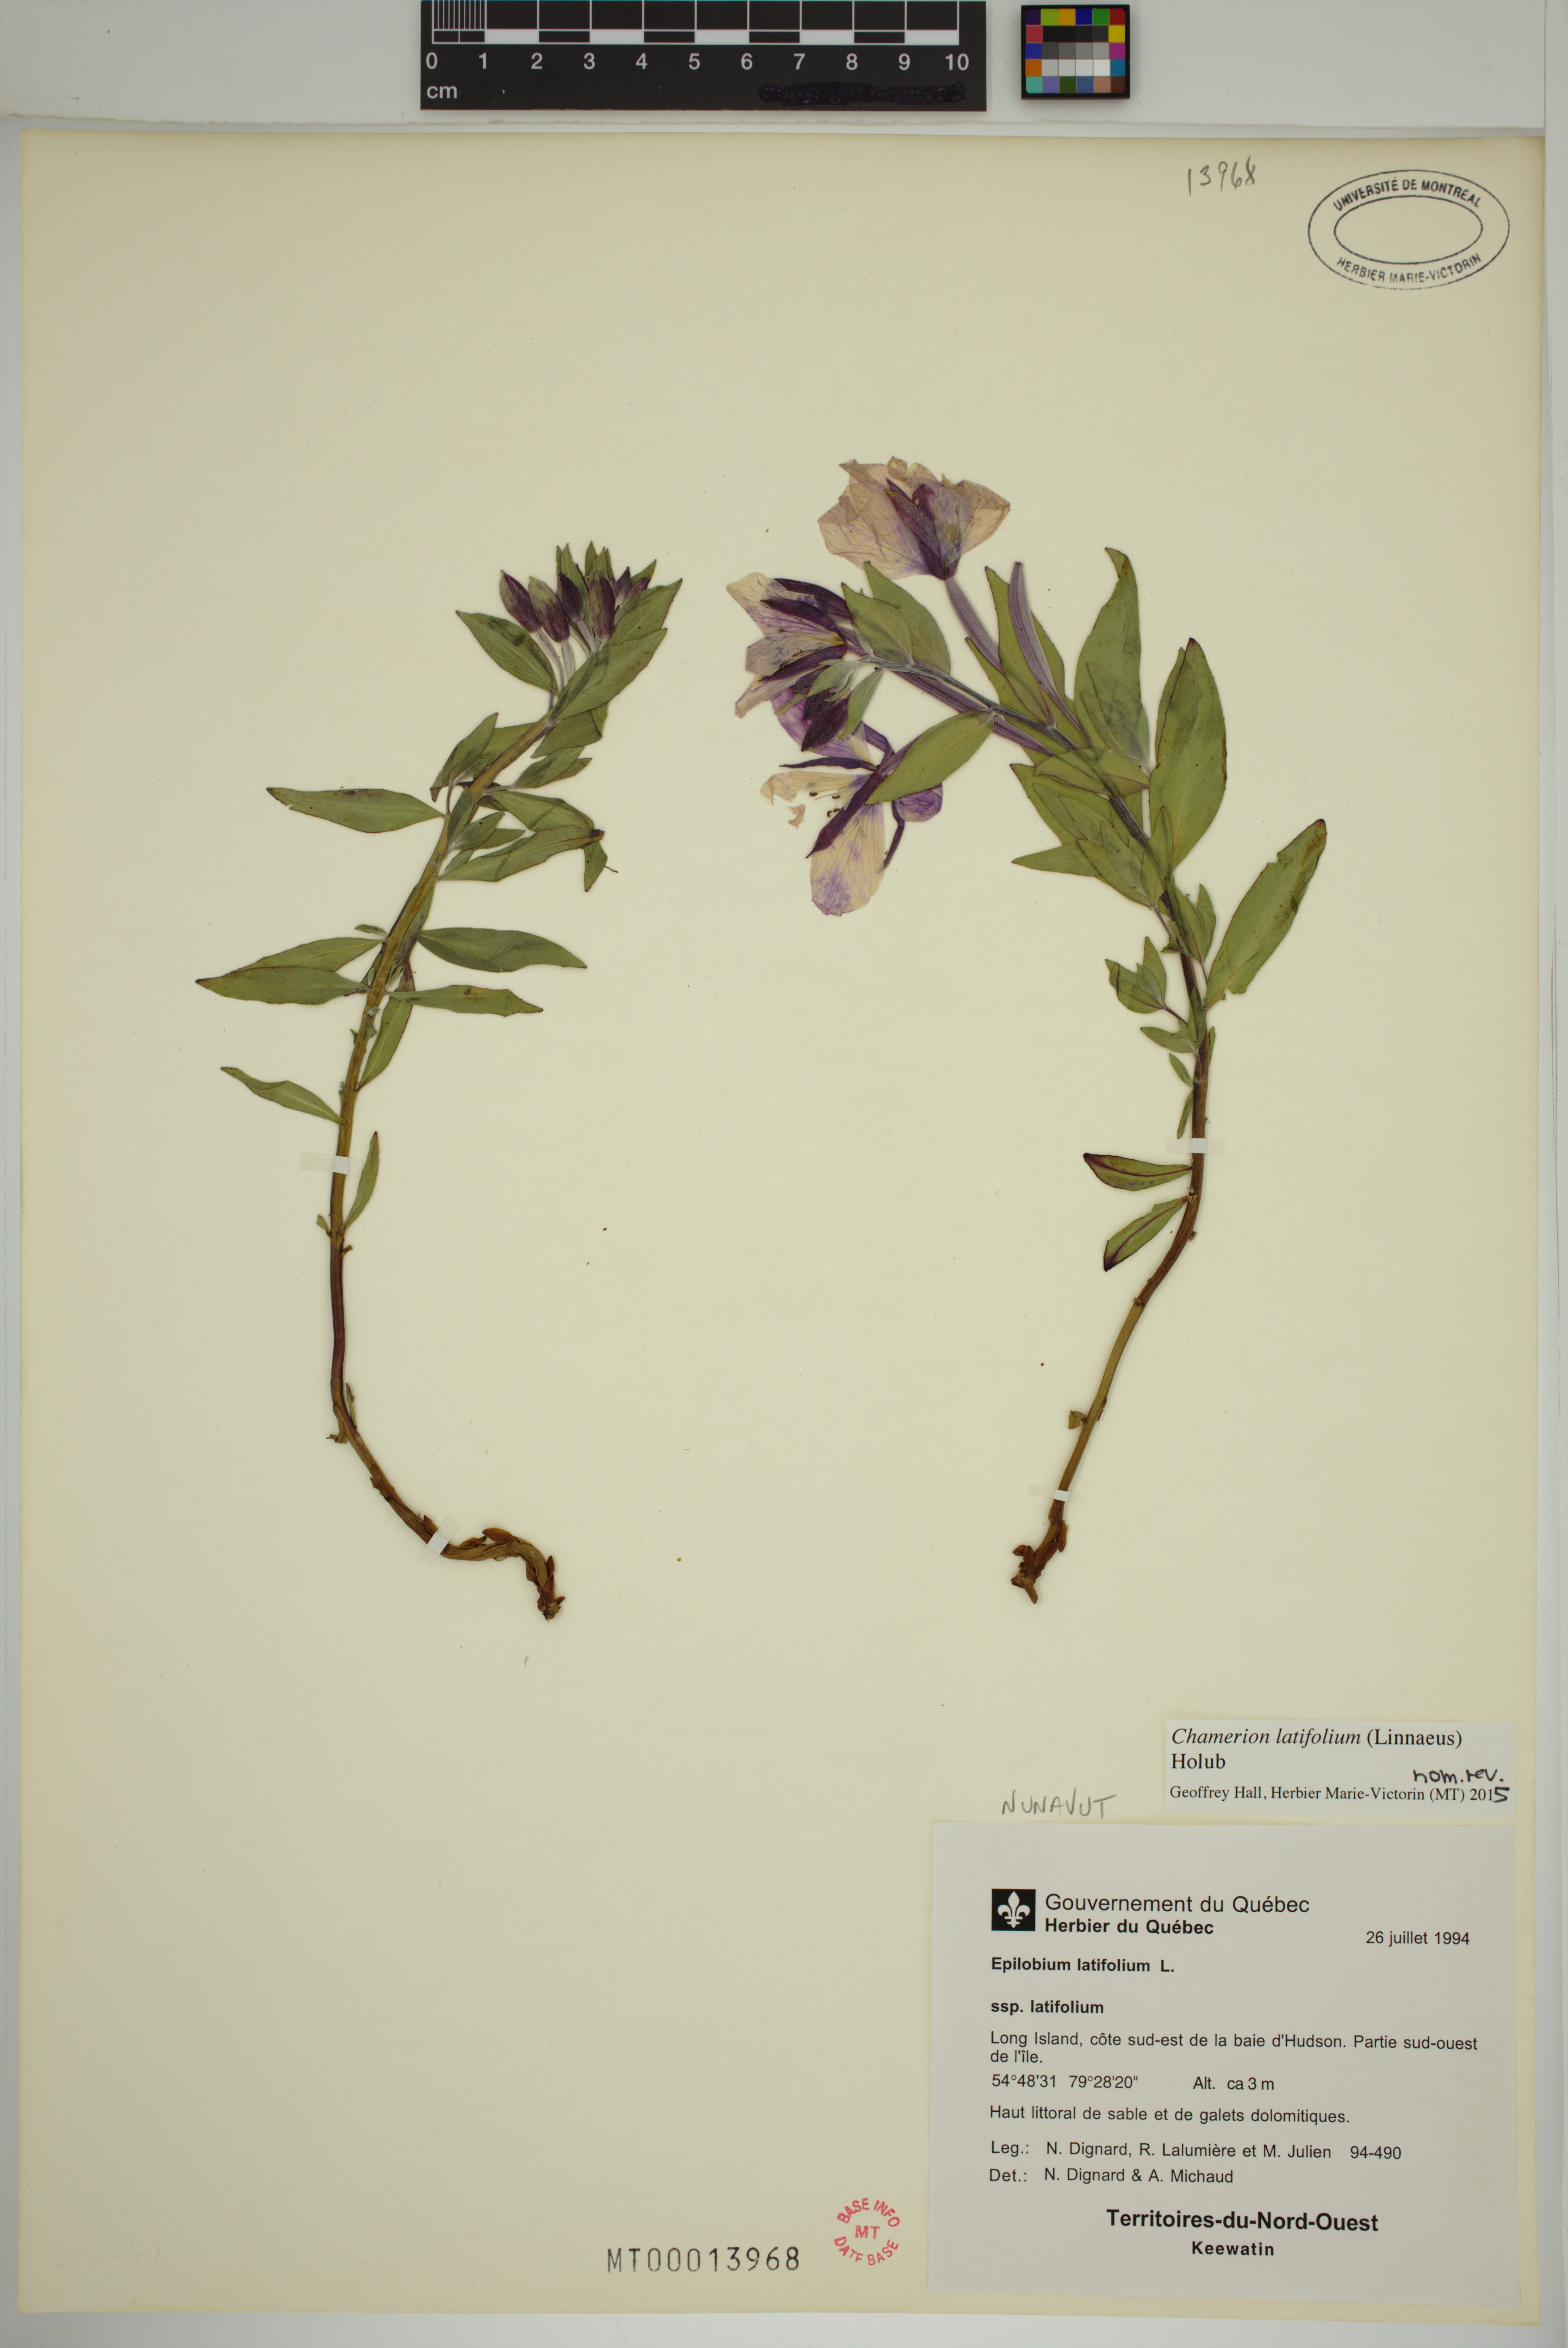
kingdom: Plantae
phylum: Tracheophyta
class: Magnoliopsida
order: Myrtales
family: Onagraceae
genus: Chamaenerion
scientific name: Chamaenerion latifolium
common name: Dwarf fireweed
